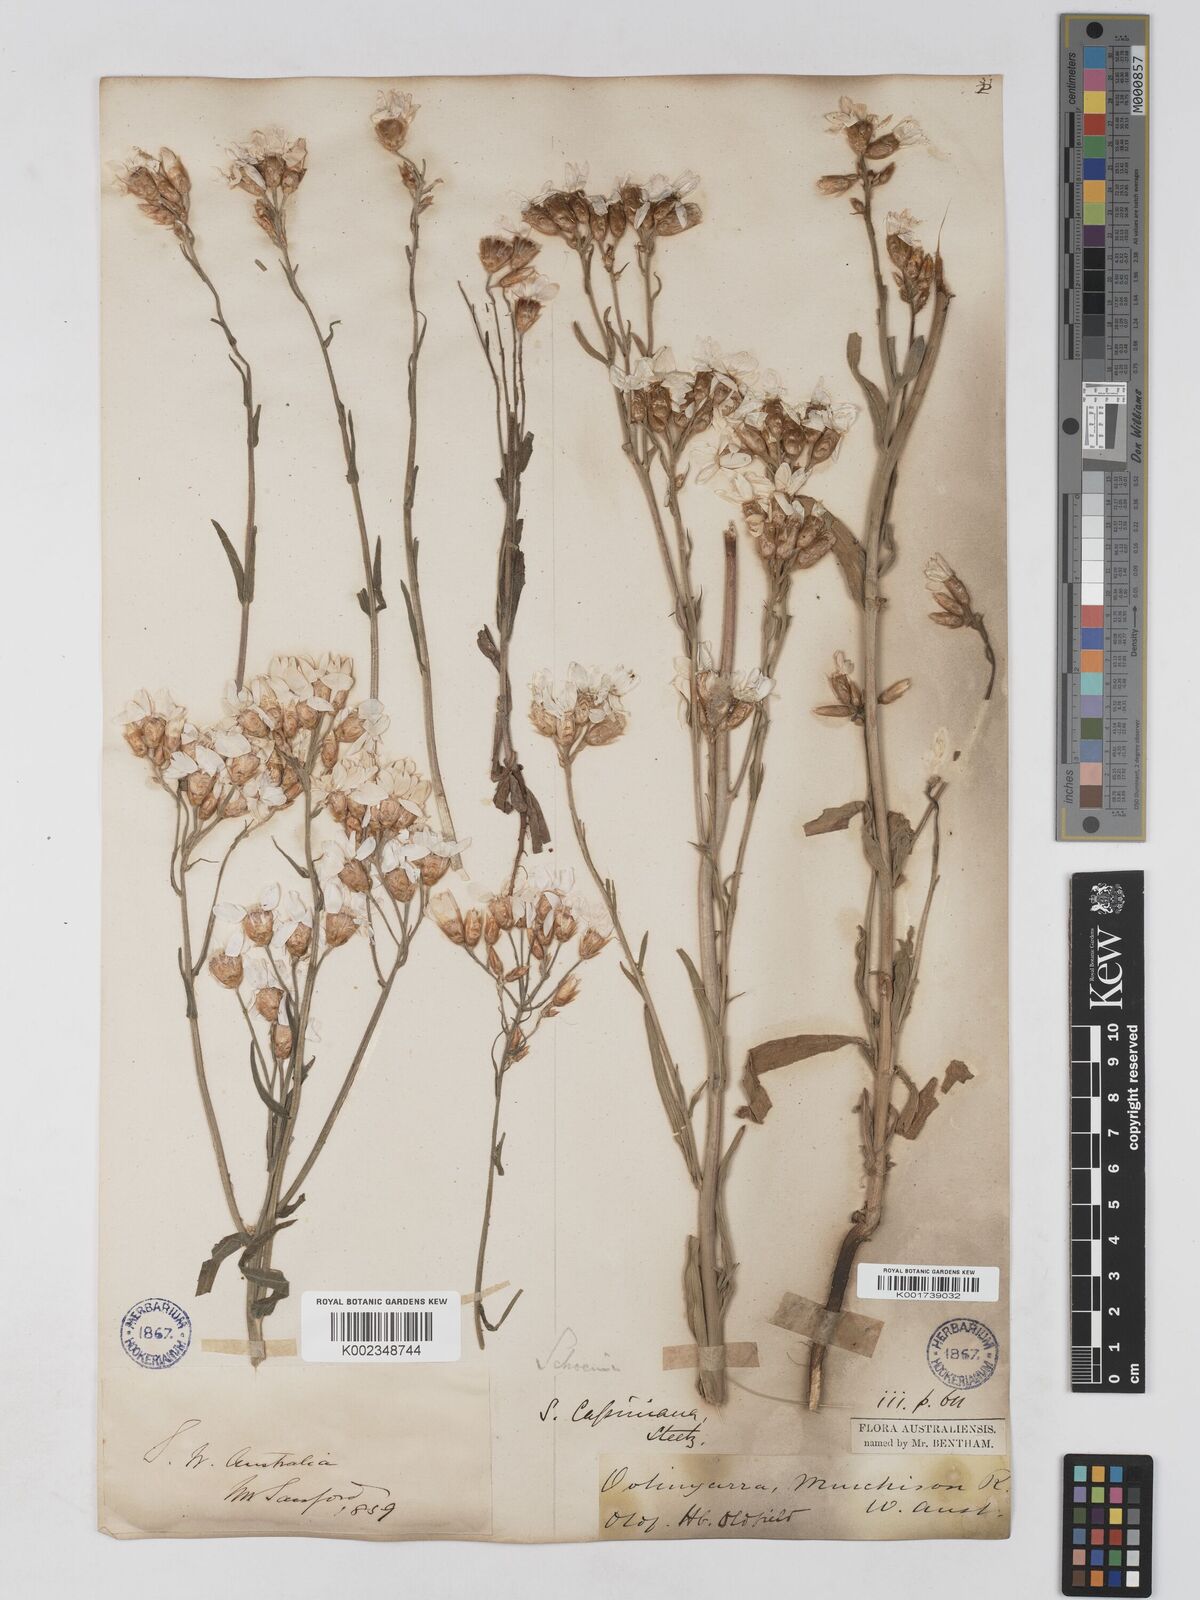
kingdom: Plantae
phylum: Tracheophyta
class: Magnoliopsida
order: Asterales
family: Asteraceae
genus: Schoenia
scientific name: Schoenia cassiniana
